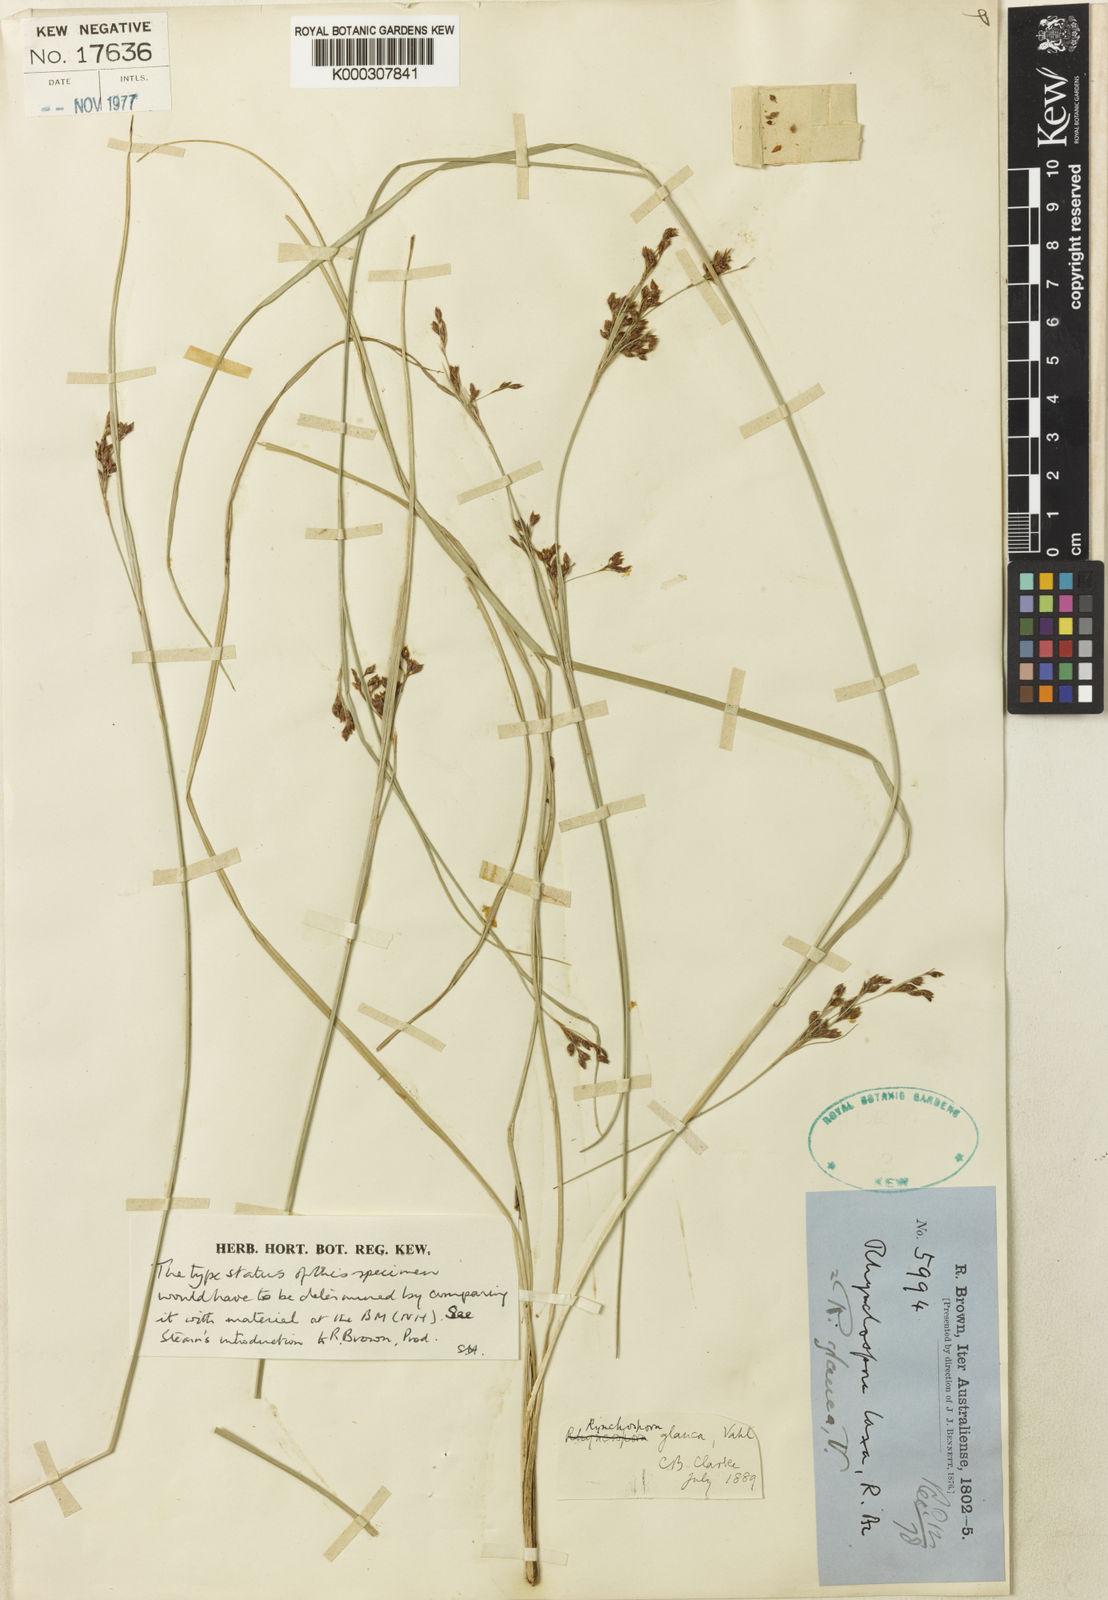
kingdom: Plantae
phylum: Tracheophyta
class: Liliopsida
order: Poales
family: Cyperaceae
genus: Rhynchospora
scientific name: Rhynchospora rugosa
